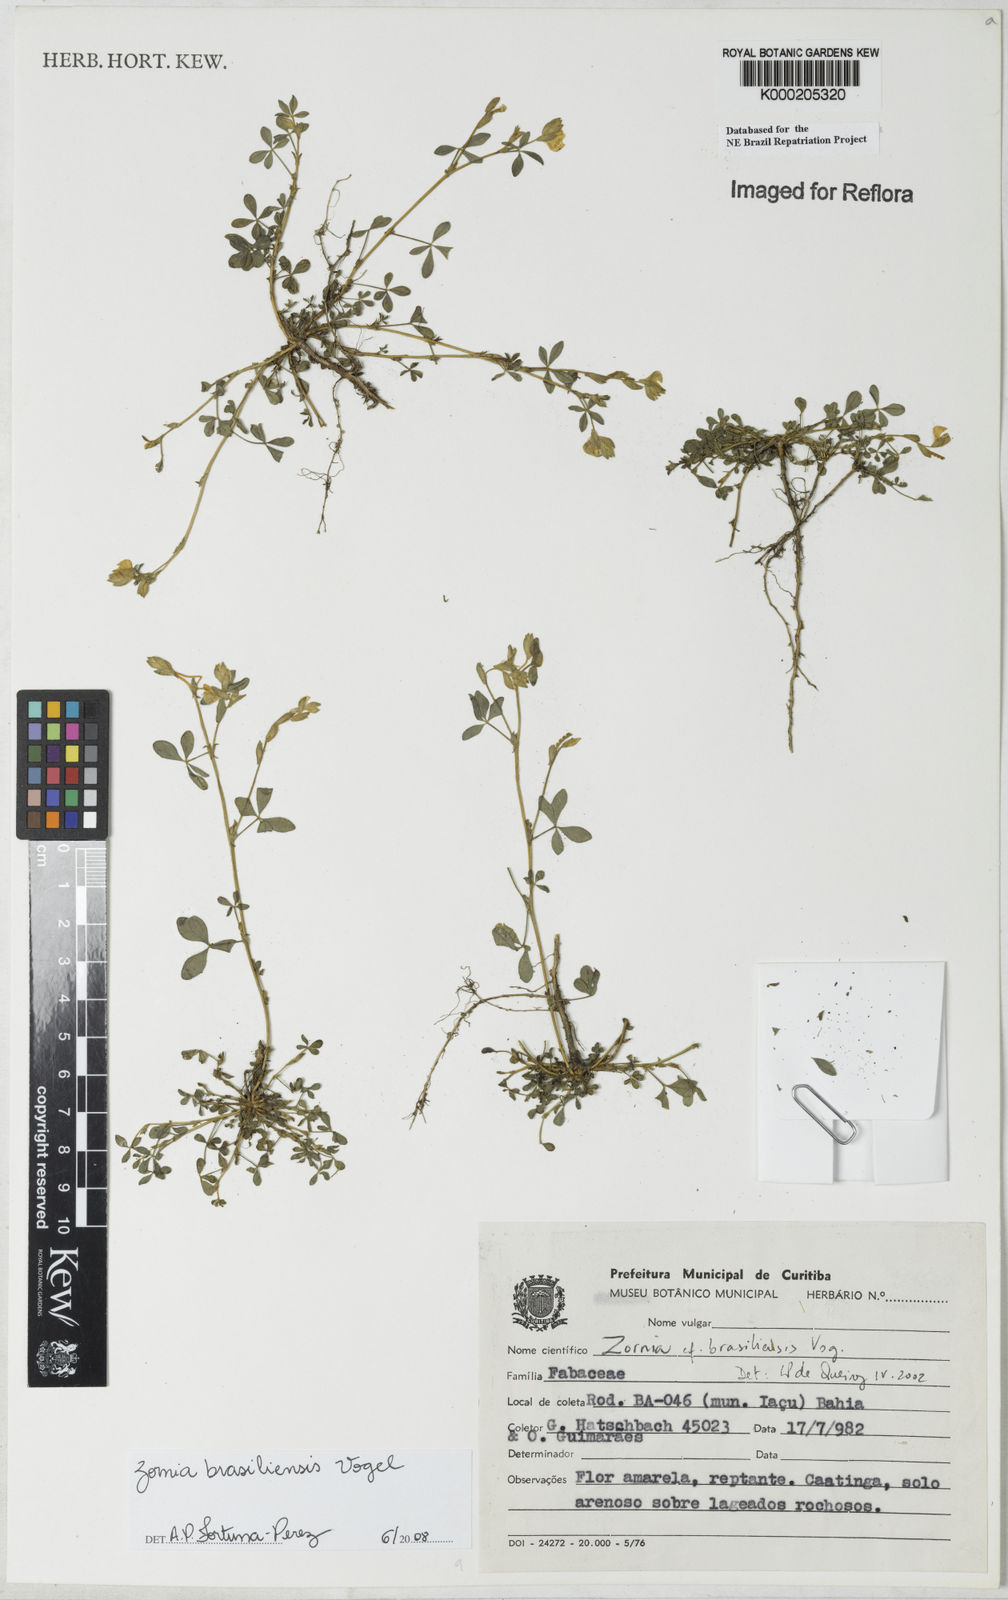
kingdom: Plantae
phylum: Tracheophyta
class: Magnoliopsida
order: Fabales
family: Fabaceae
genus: Zornia
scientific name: Zornia brasiliensis
